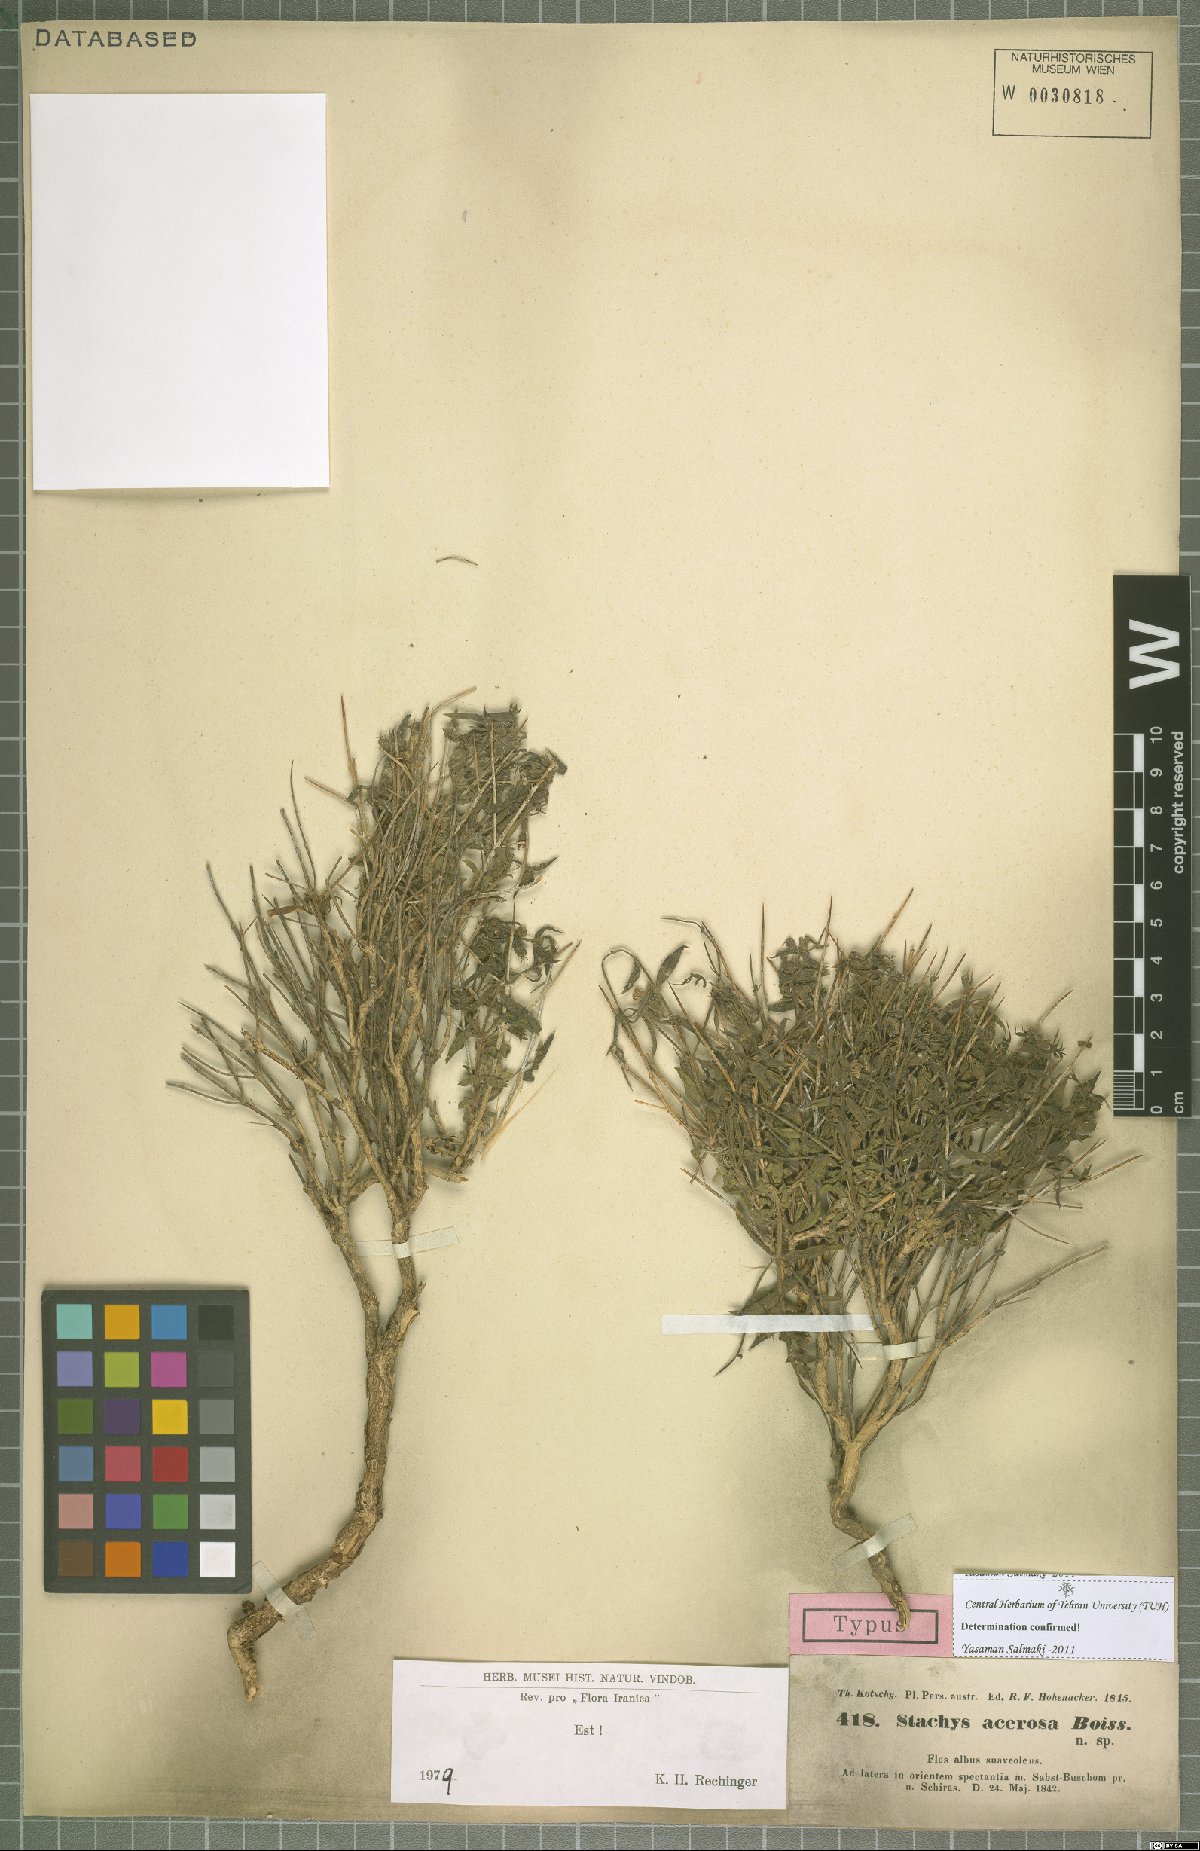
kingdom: Plantae
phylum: Tracheophyta
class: Magnoliopsida
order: Lamiales
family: Lamiaceae
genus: Stachys
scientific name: Stachys acerosa
